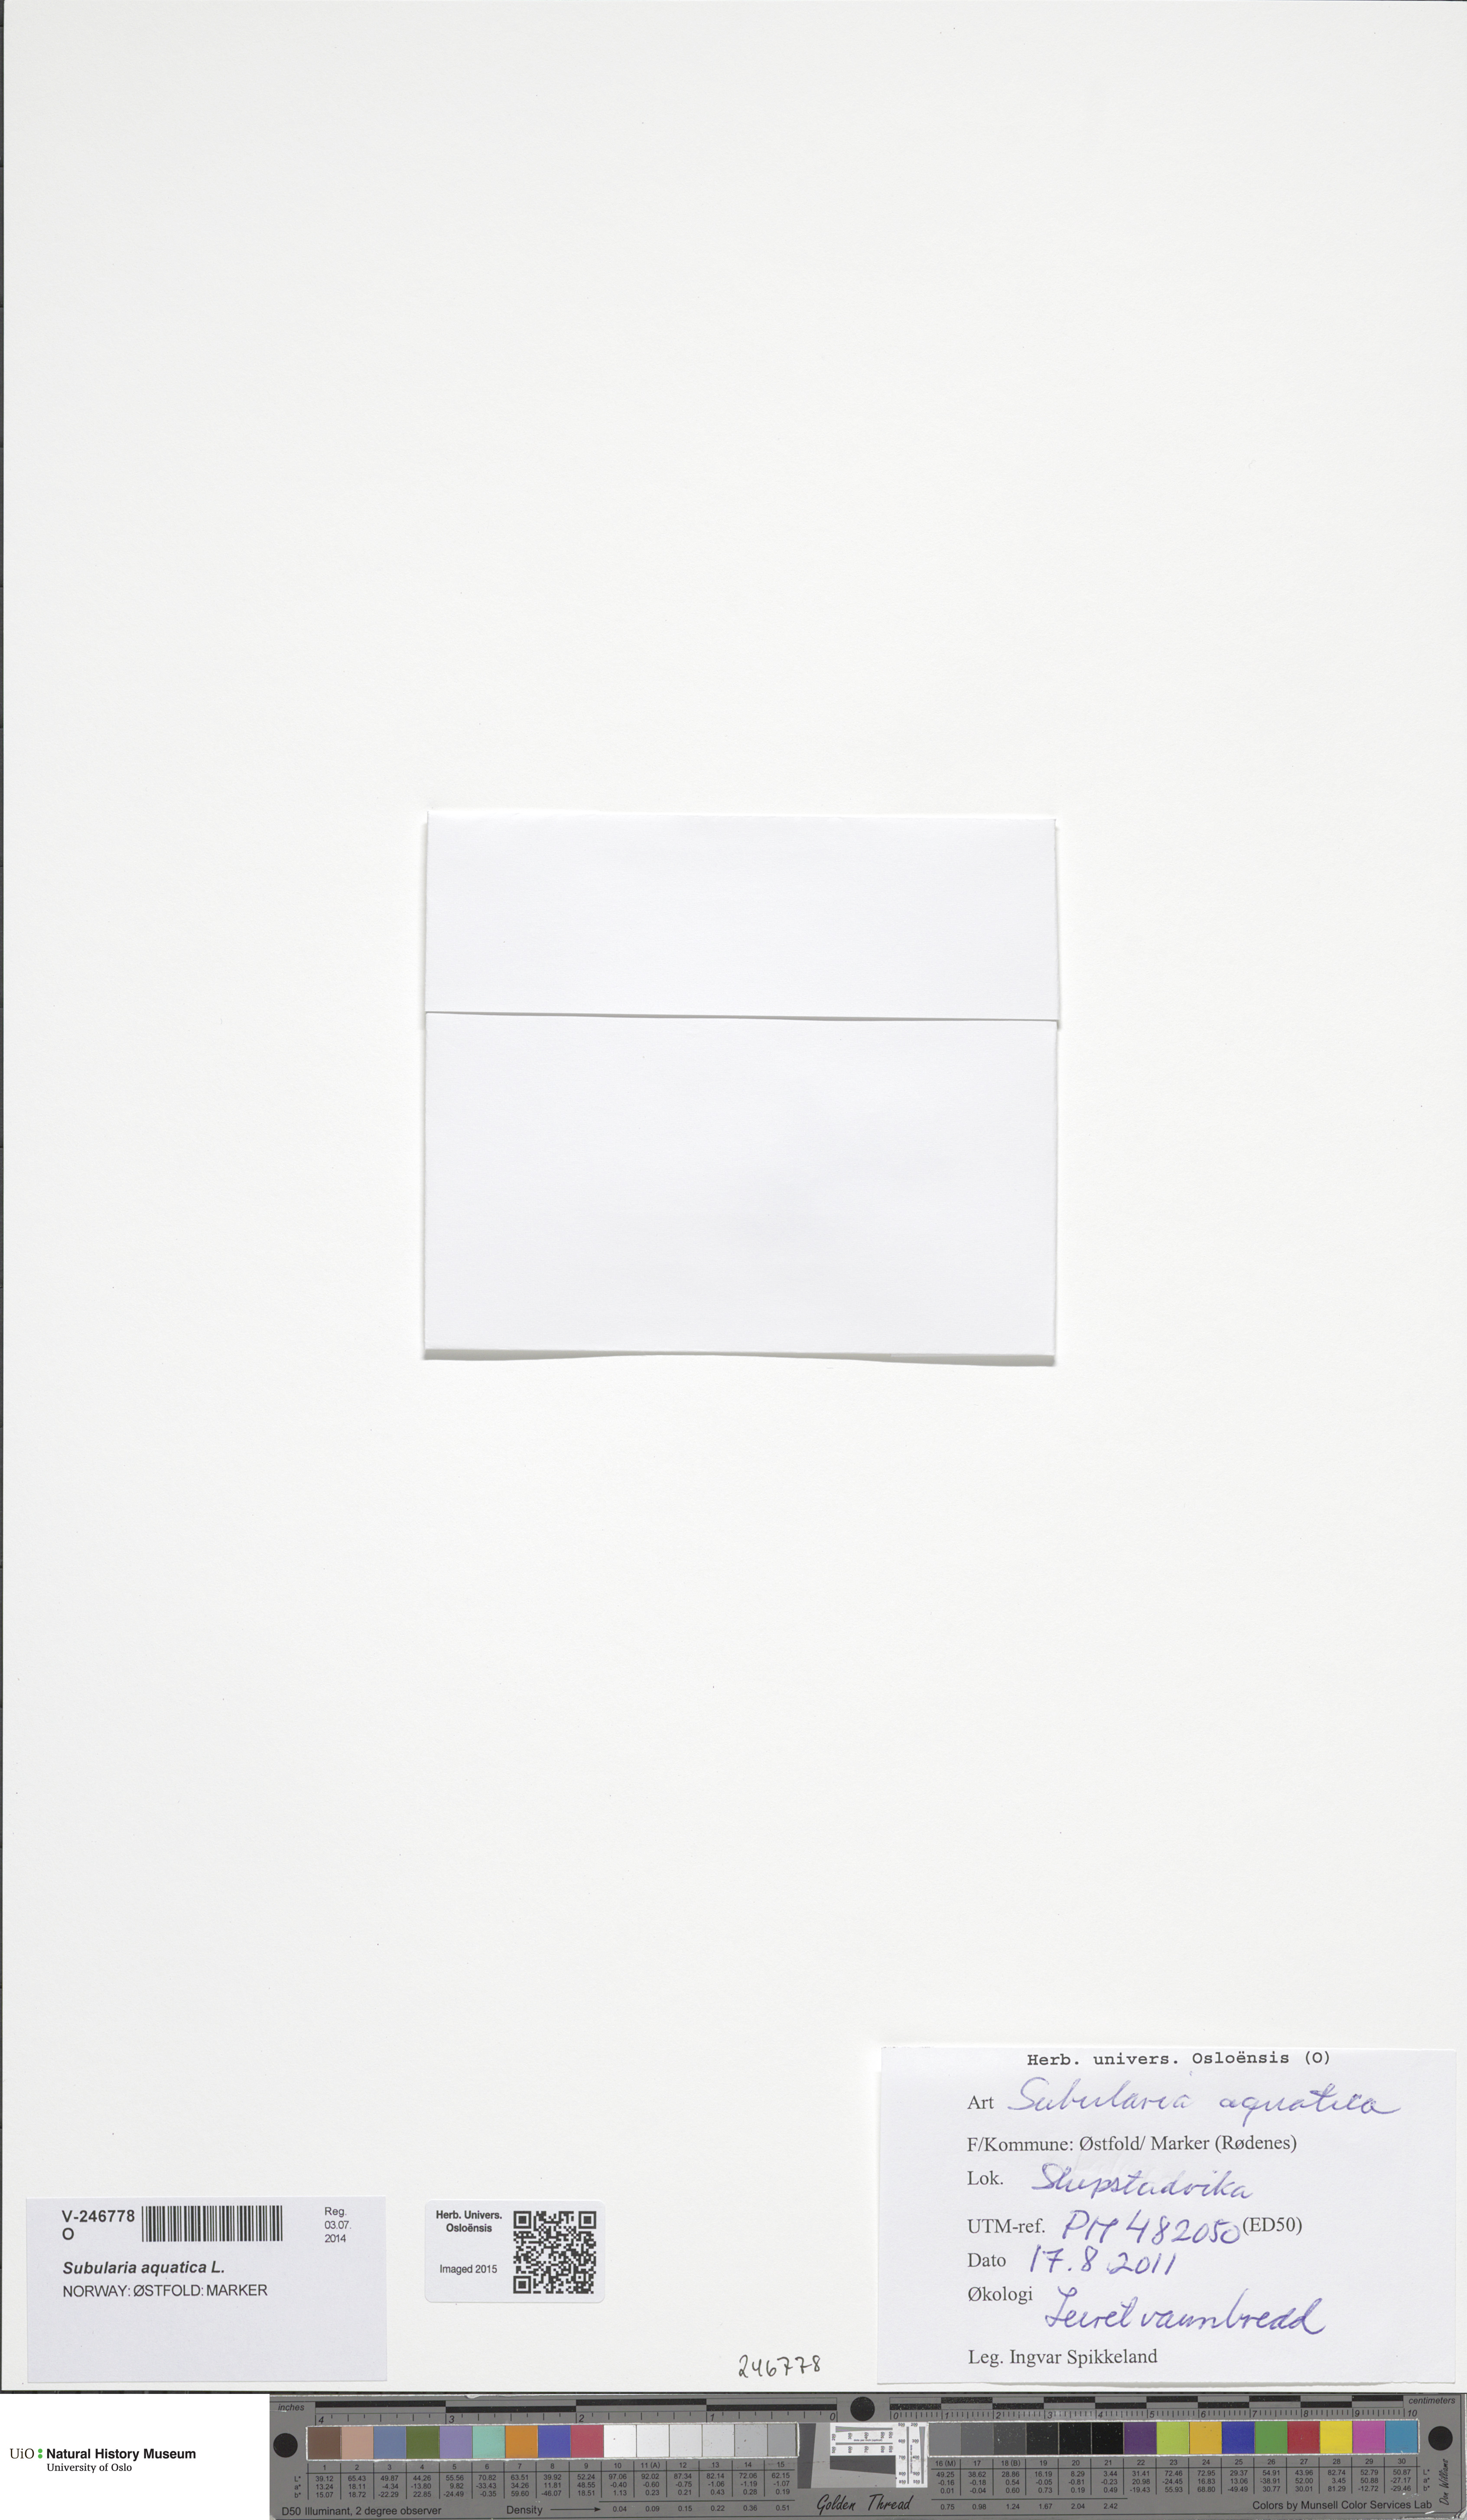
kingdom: Plantae
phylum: Tracheophyta
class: Magnoliopsida
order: Brassicales
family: Brassicaceae
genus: Subularia
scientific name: Subularia aquatica
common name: Awlwort
